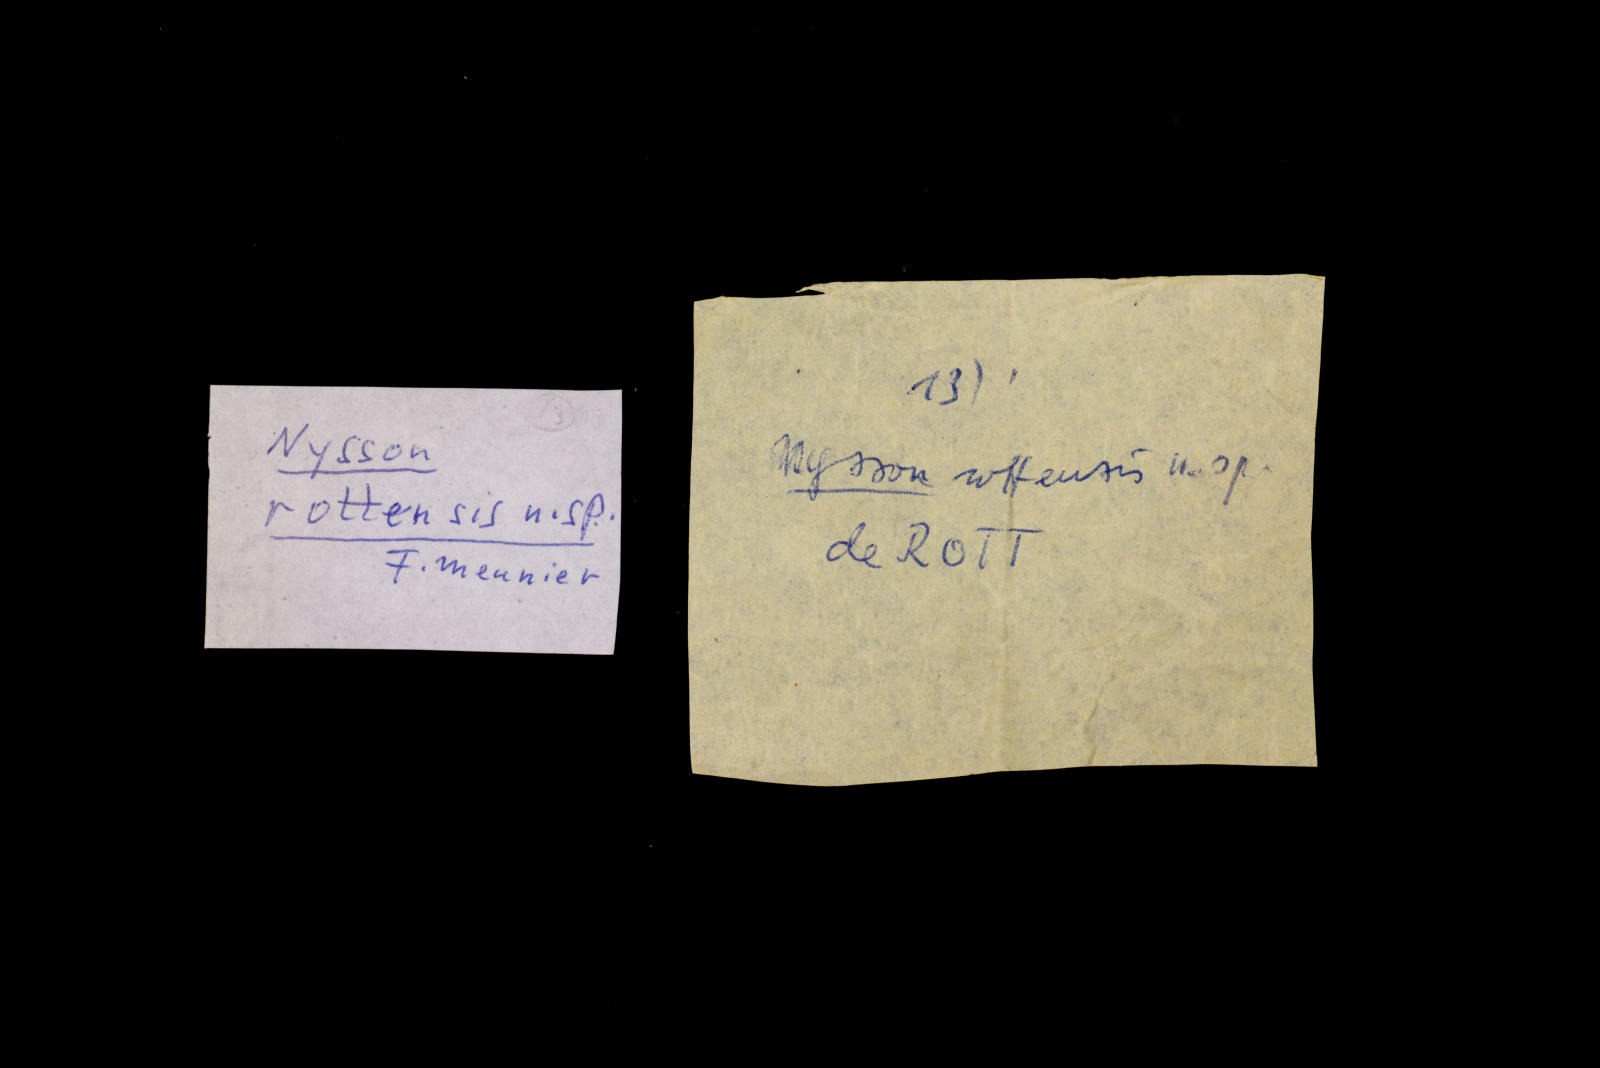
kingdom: Animalia
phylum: Arthropoda
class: Insecta
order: Hymenoptera
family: Eumenidae
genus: Alastor
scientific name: Alastor rottensis
